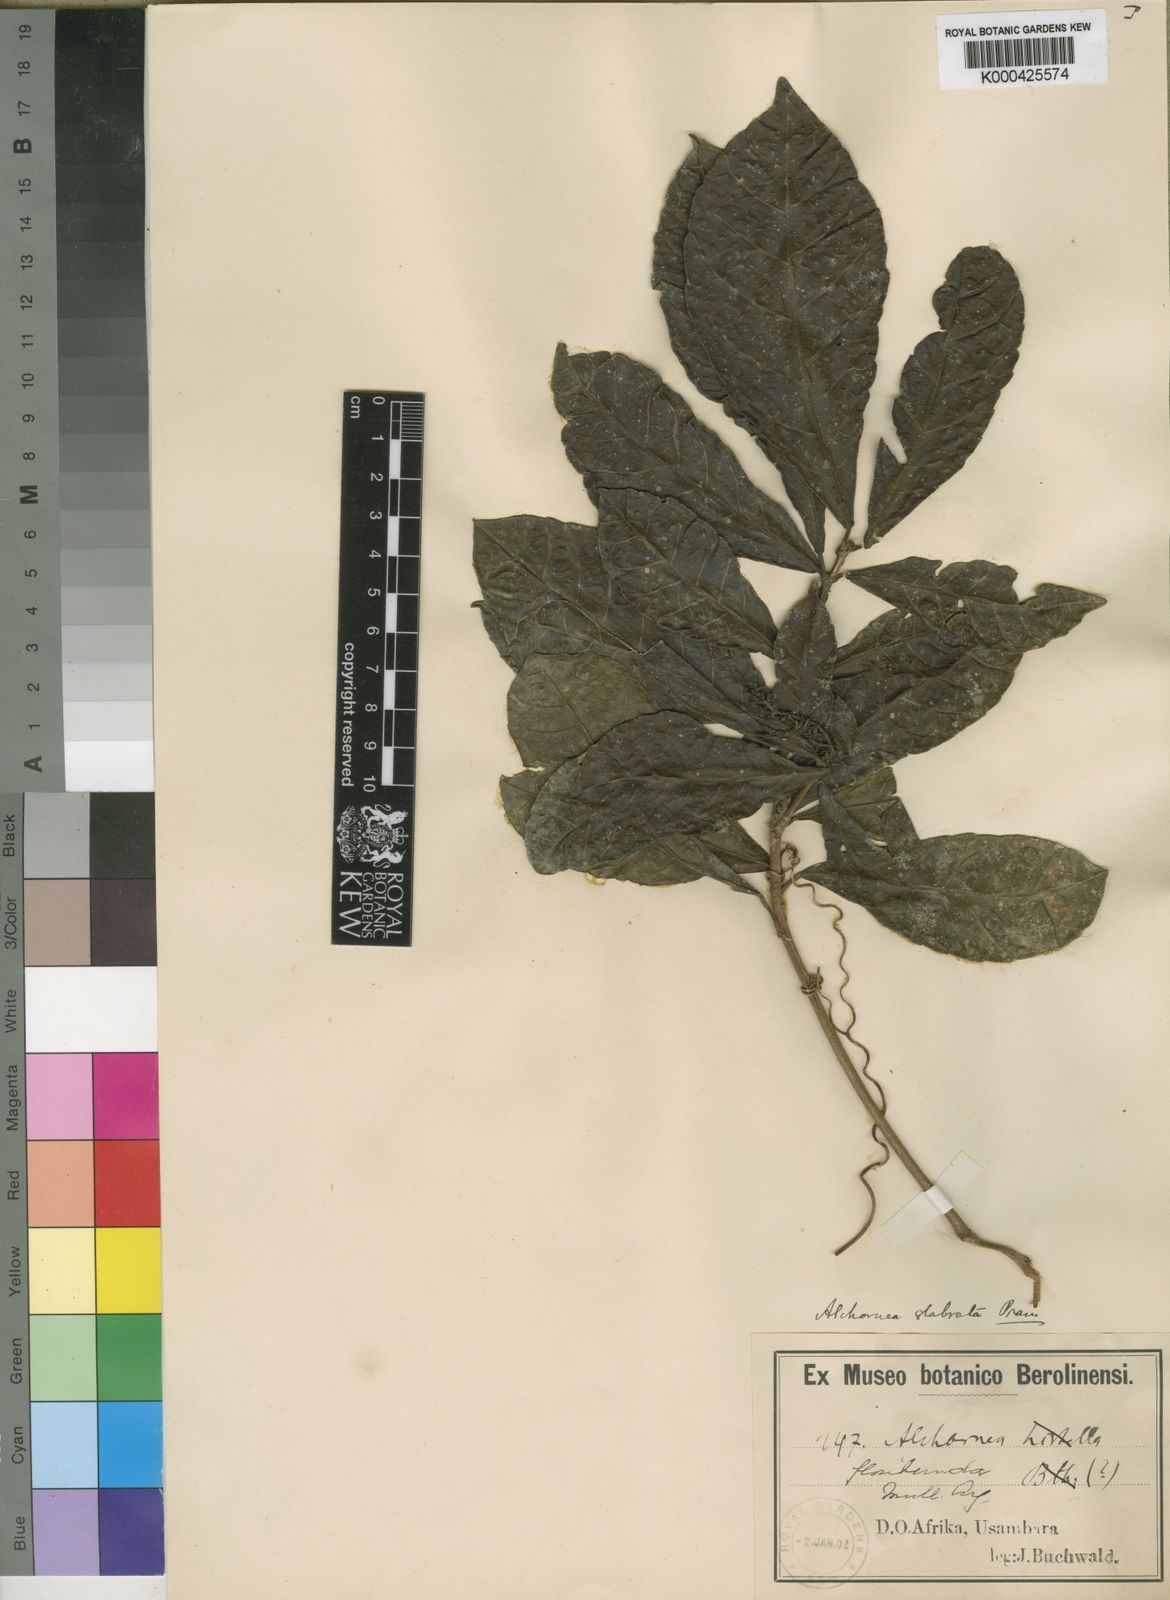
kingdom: Plantae
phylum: Tracheophyta
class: Magnoliopsida
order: Malpighiales
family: Euphorbiaceae
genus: Alchornea
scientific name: Alchornea hirtella
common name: Forest bead-string
